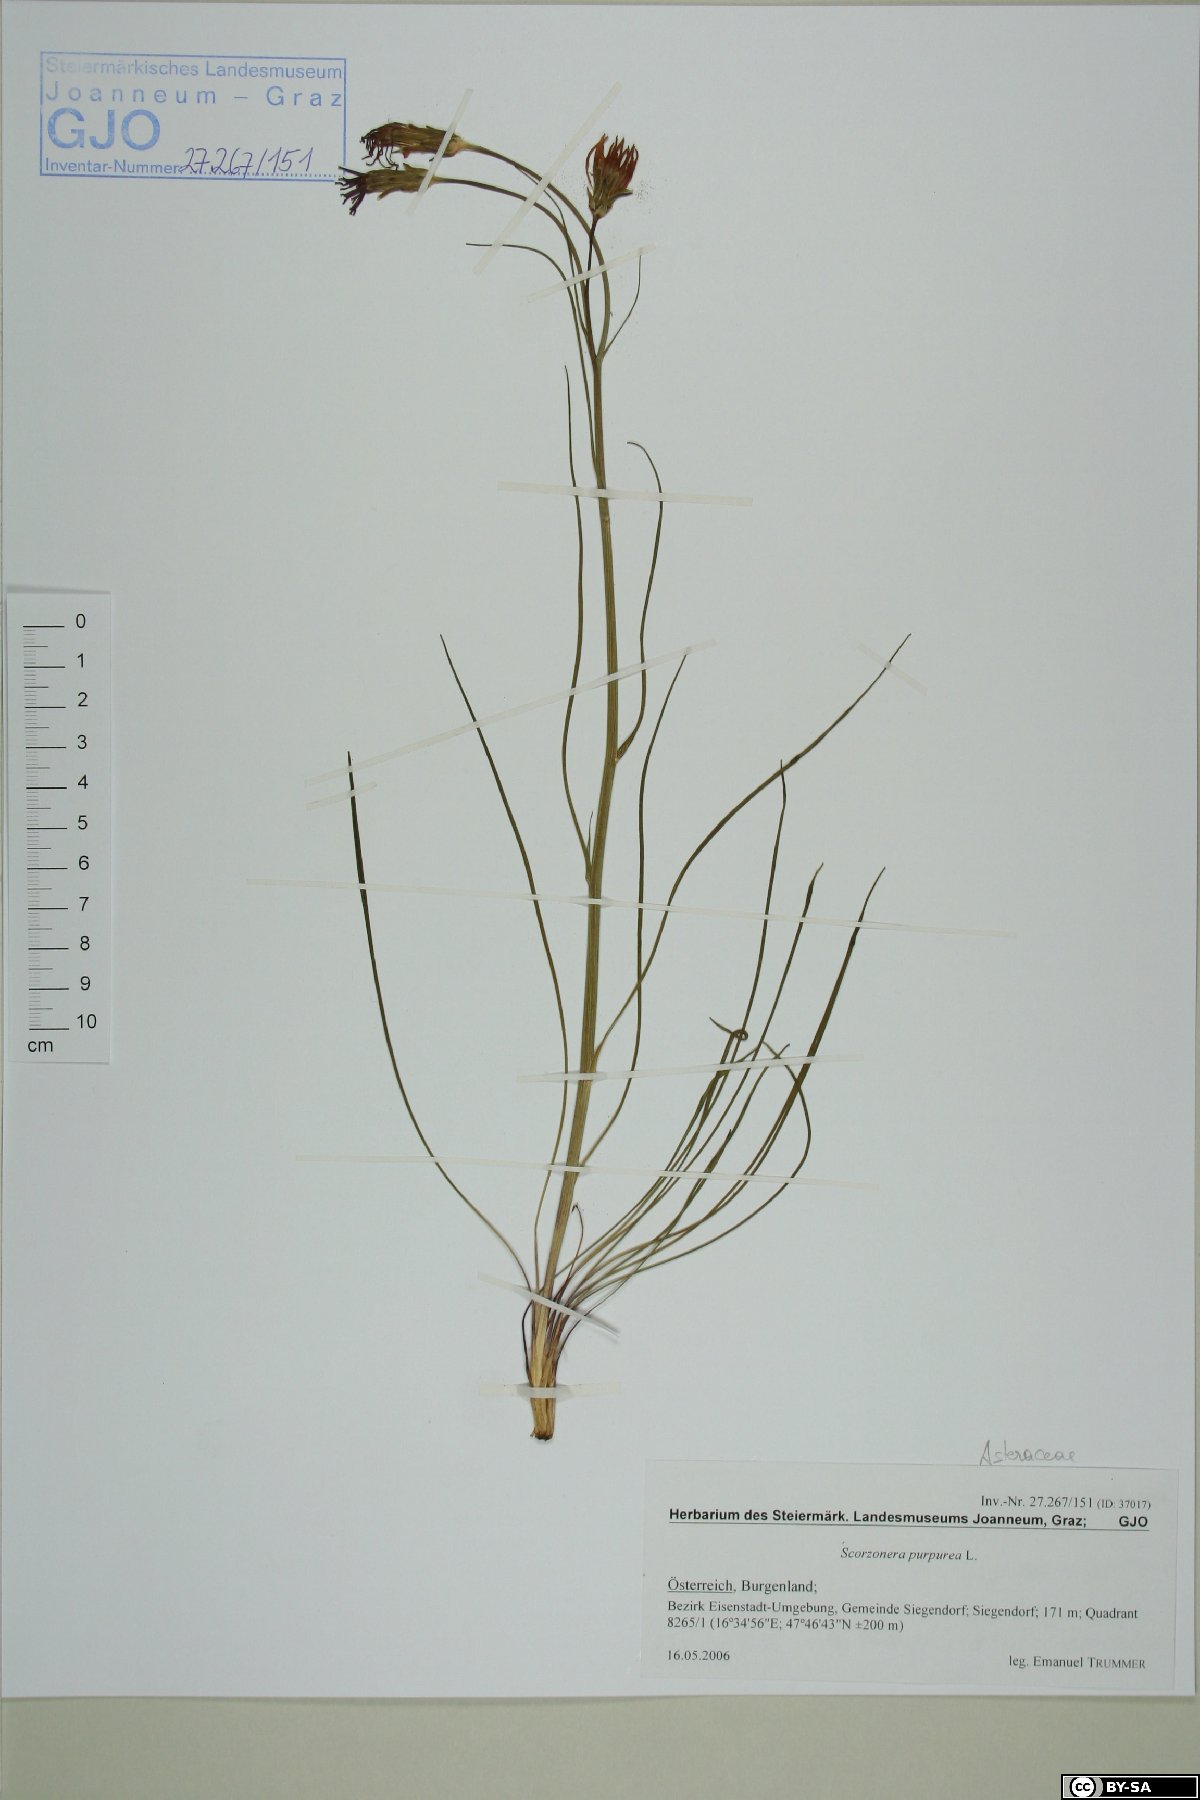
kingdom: Plantae
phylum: Tracheophyta
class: Magnoliopsida
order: Asterales
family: Asteraceae
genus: Scorzonera
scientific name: Scorzonera purpurea
